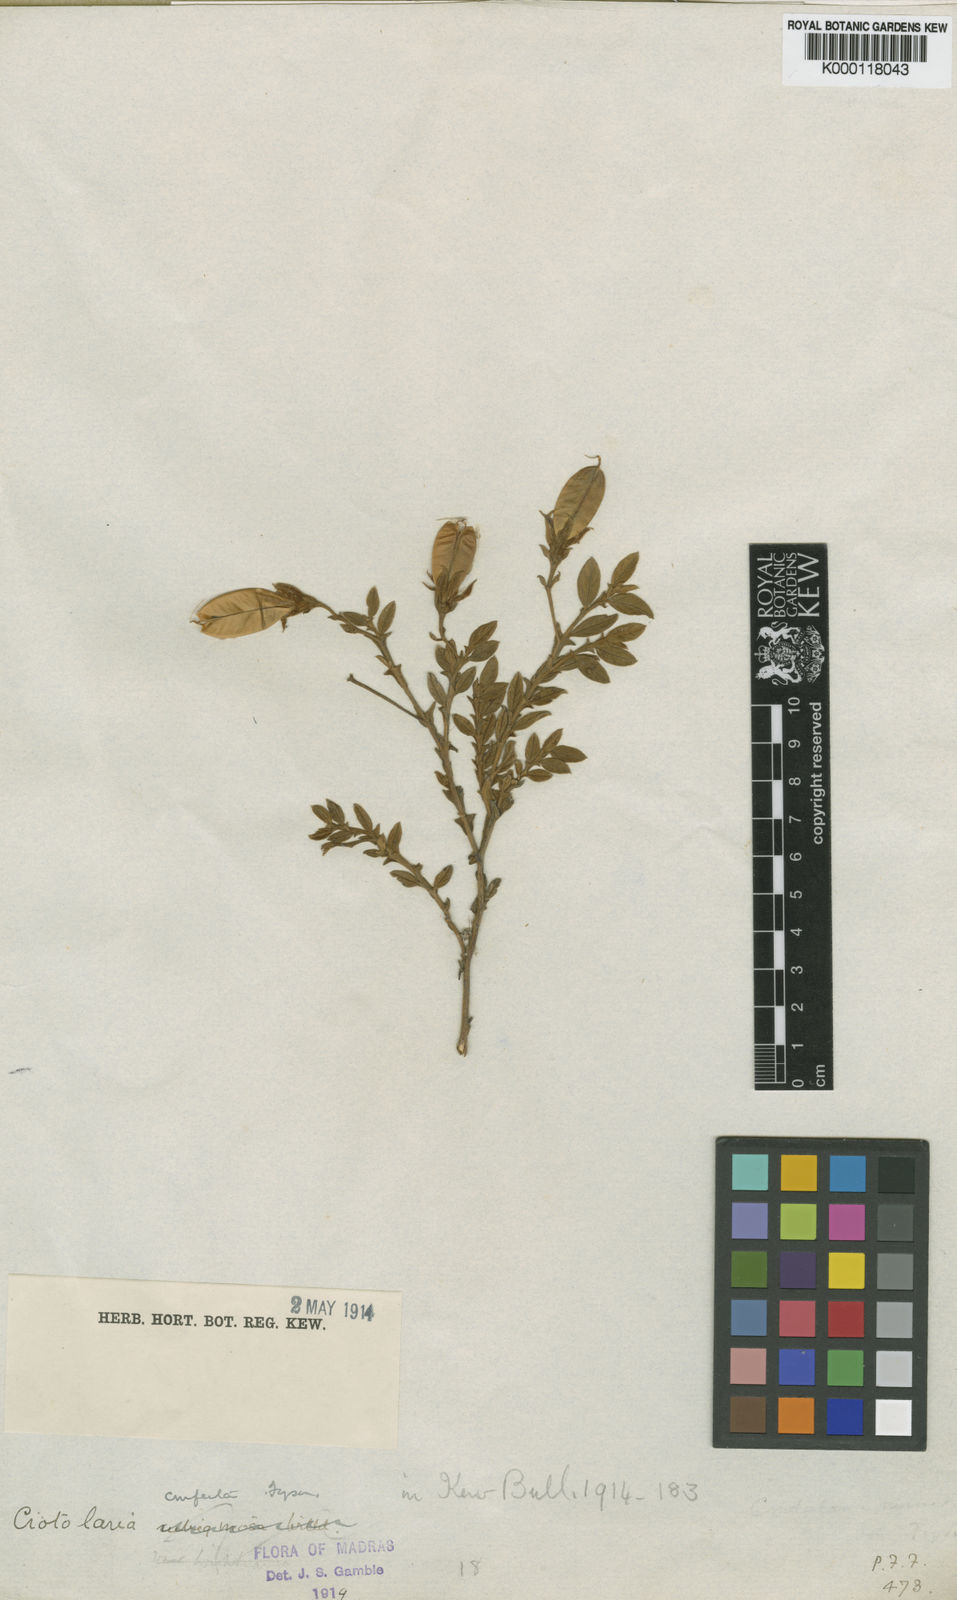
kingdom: Plantae
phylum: Tracheophyta
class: Magnoliopsida
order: Fabales
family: Fabaceae
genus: Crotalaria
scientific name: Crotalaria scabrella
